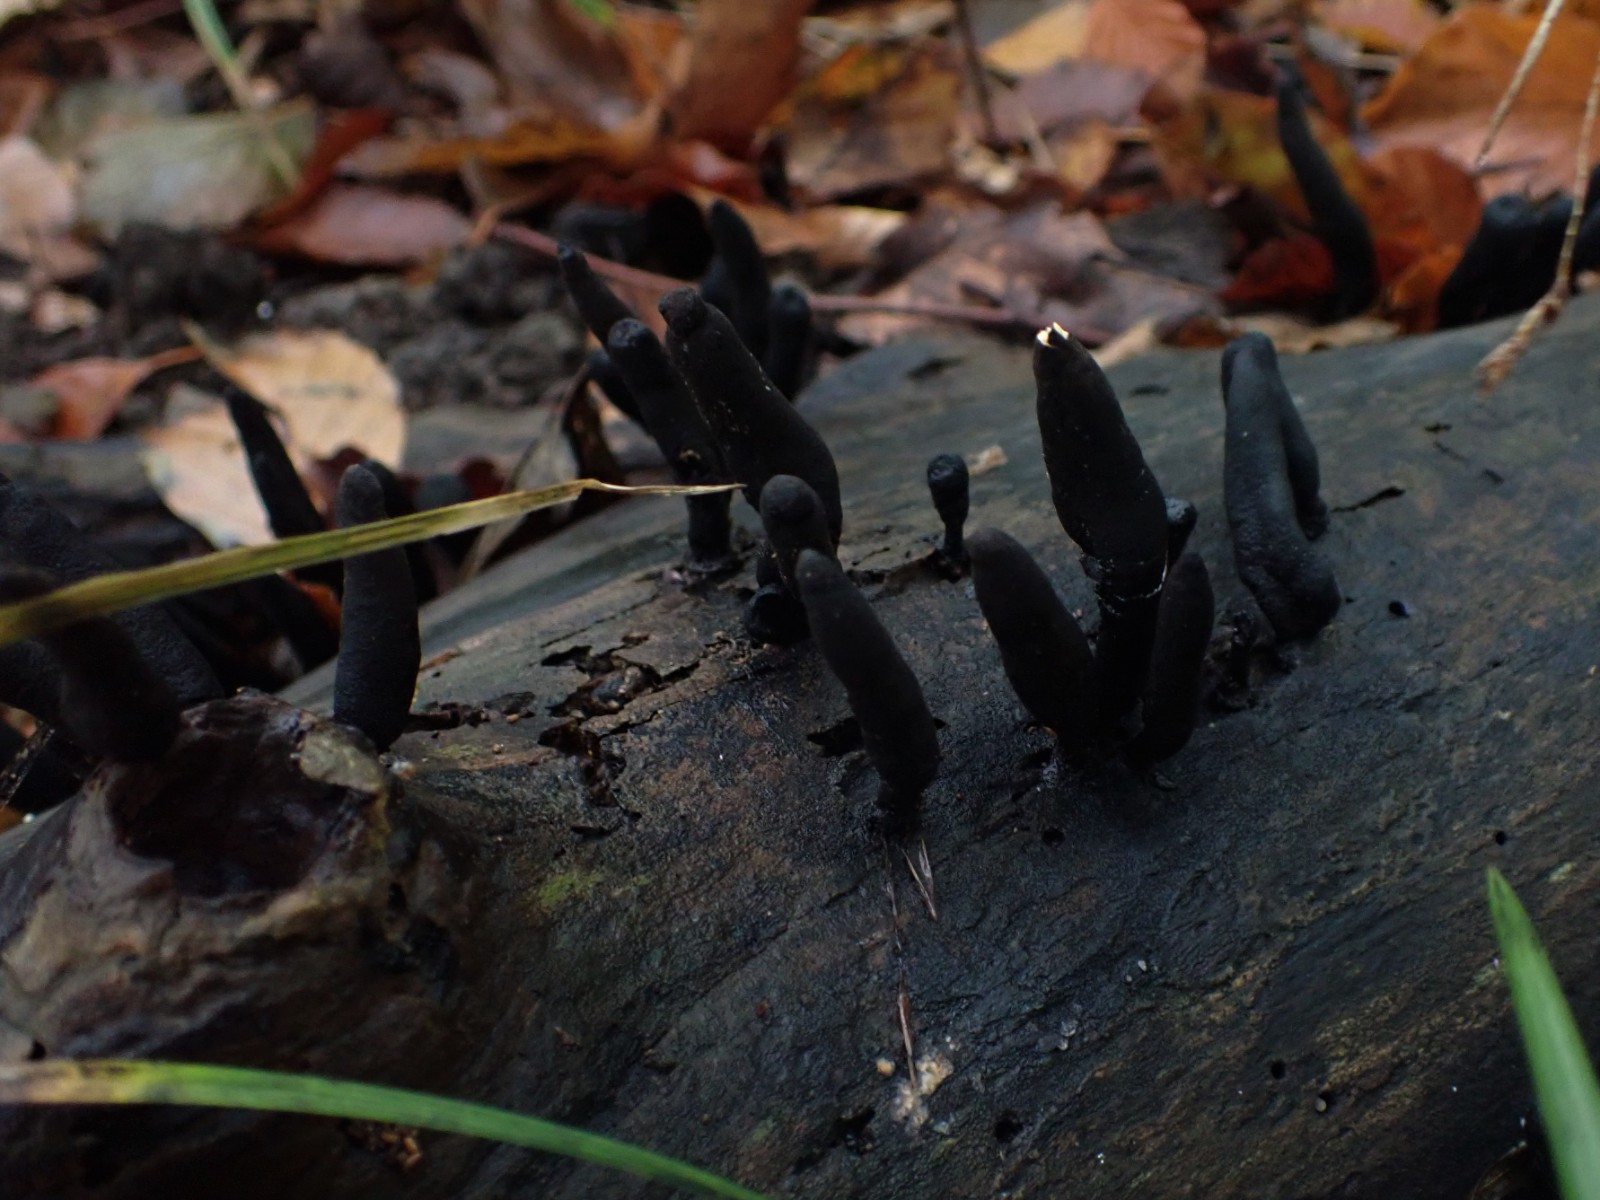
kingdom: Fungi
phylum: Ascomycota
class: Sordariomycetes
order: Xylariales
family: Xylariaceae
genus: Xylaria
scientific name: Xylaria longipes
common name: slank stødsvamp
